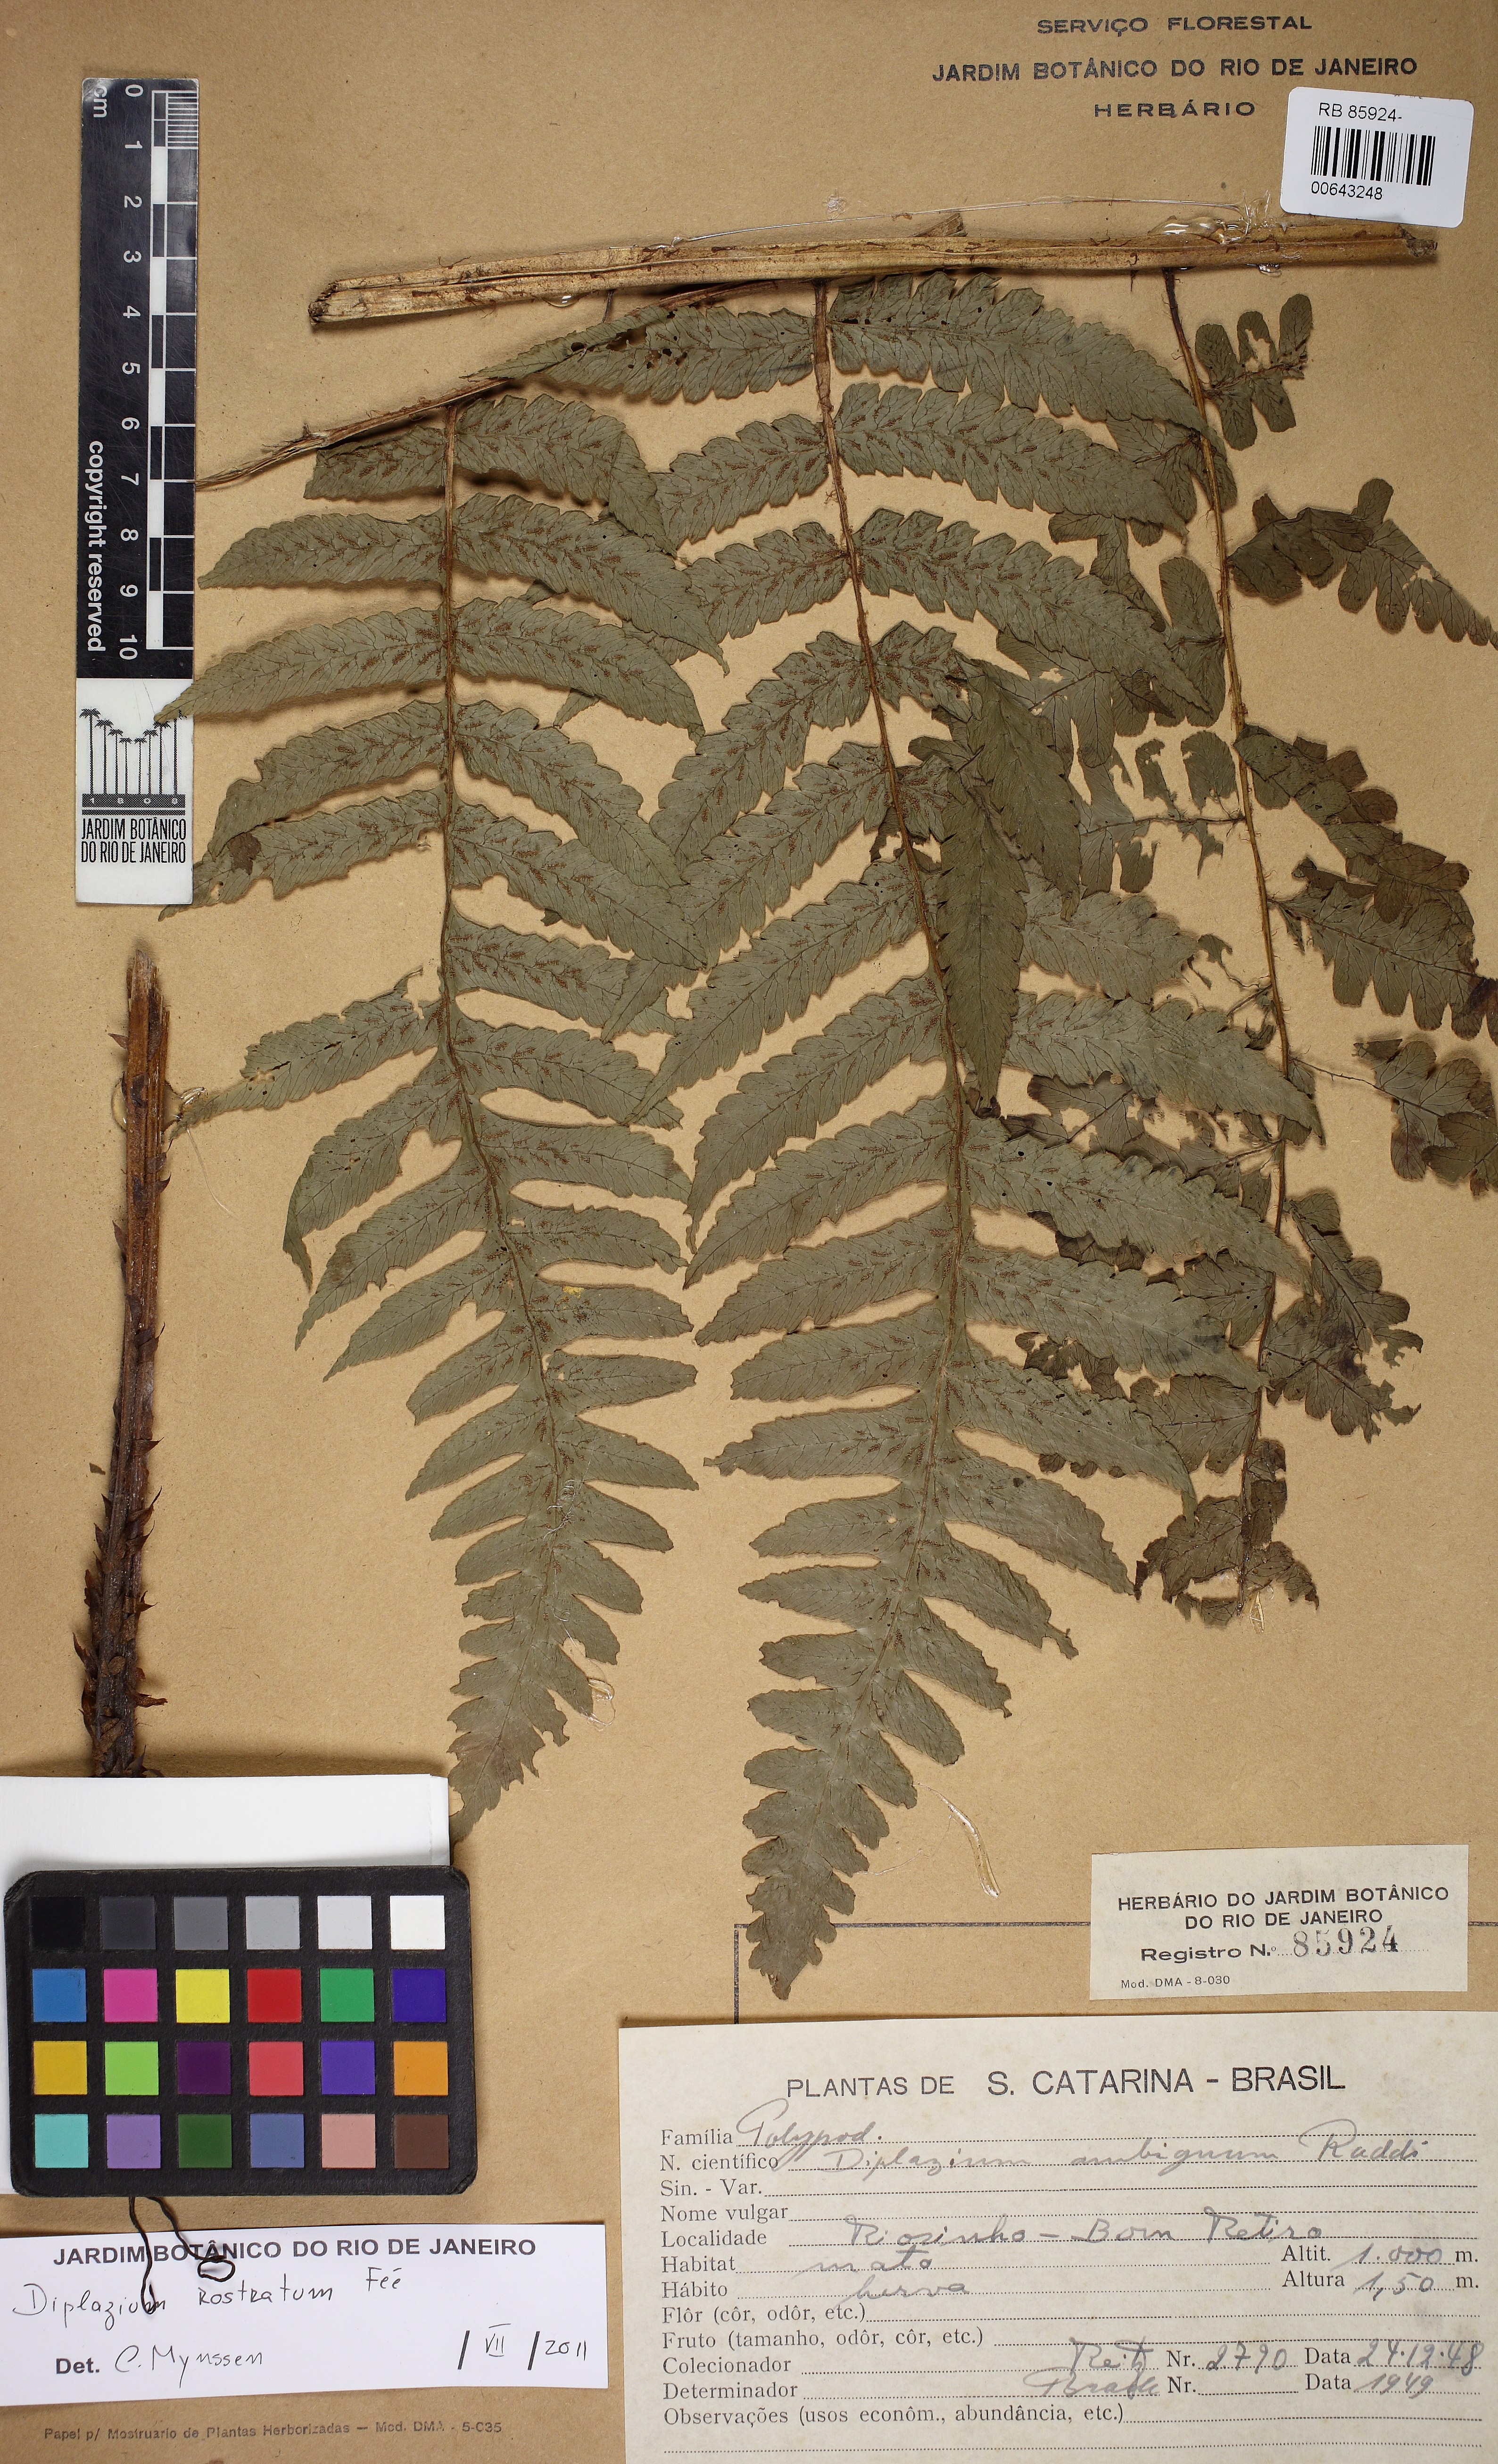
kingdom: Plantae
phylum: Tracheophyta
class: Polypodiopsida
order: Polypodiales
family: Athyriaceae
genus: Diplazium
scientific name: Diplazium rostratum
